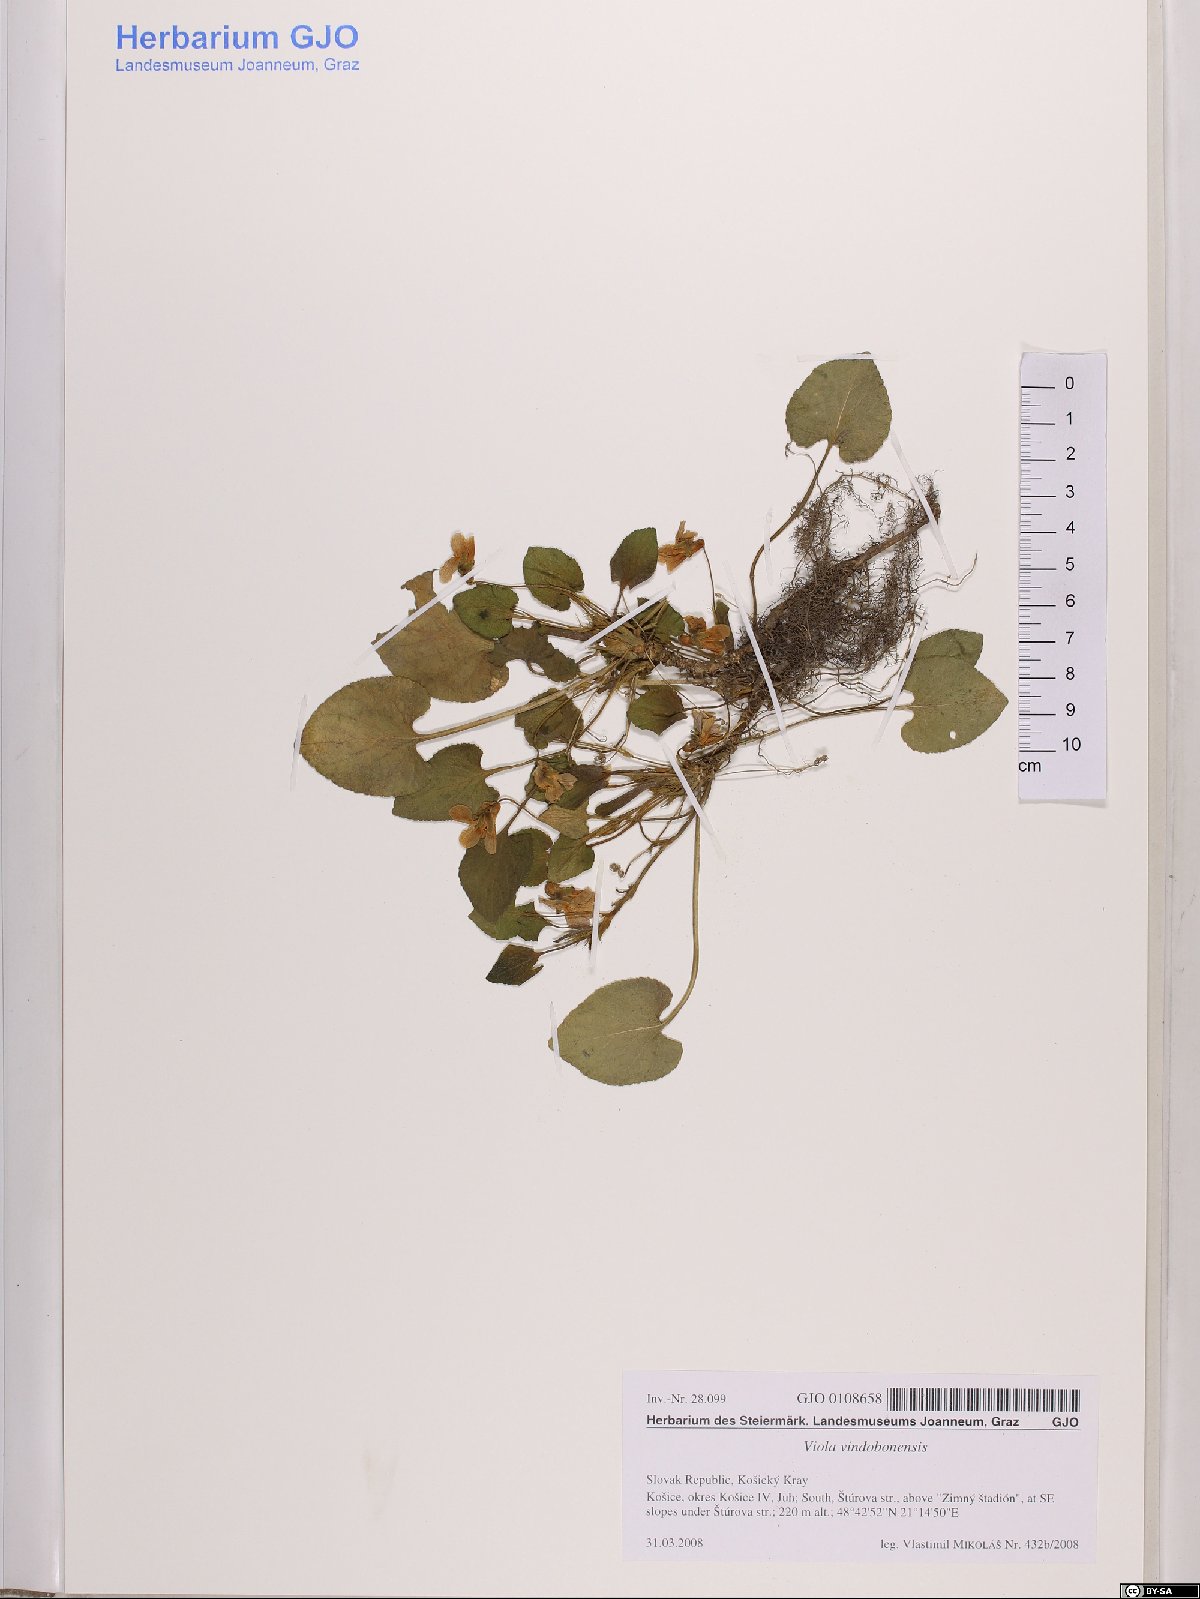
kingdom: Plantae
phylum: Tracheophyta
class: Magnoliopsida
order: Malpighiales
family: Violaceae
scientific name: Violaceae
